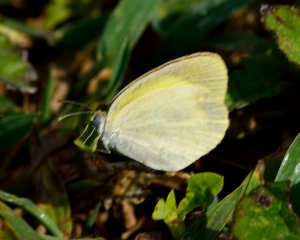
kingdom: Animalia
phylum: Arthropoda
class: Insecta
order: Lepidoptera
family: Pieridae
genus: Eurema
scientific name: Eurema daira
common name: Barred Yellow
